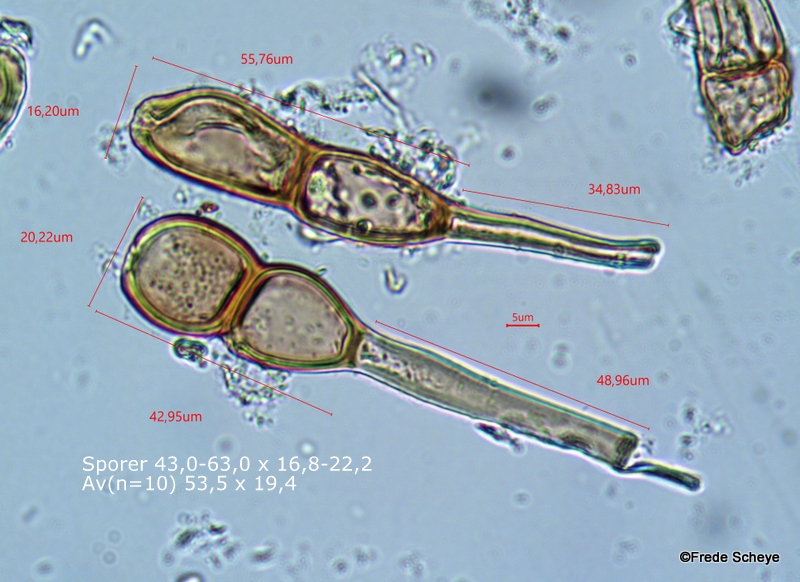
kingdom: Fungi
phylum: Basidiomycota
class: Pucciniomycetes
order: Pucciniales
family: Pucciniaceae
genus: Puccinia
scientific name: Puccinia caricina
